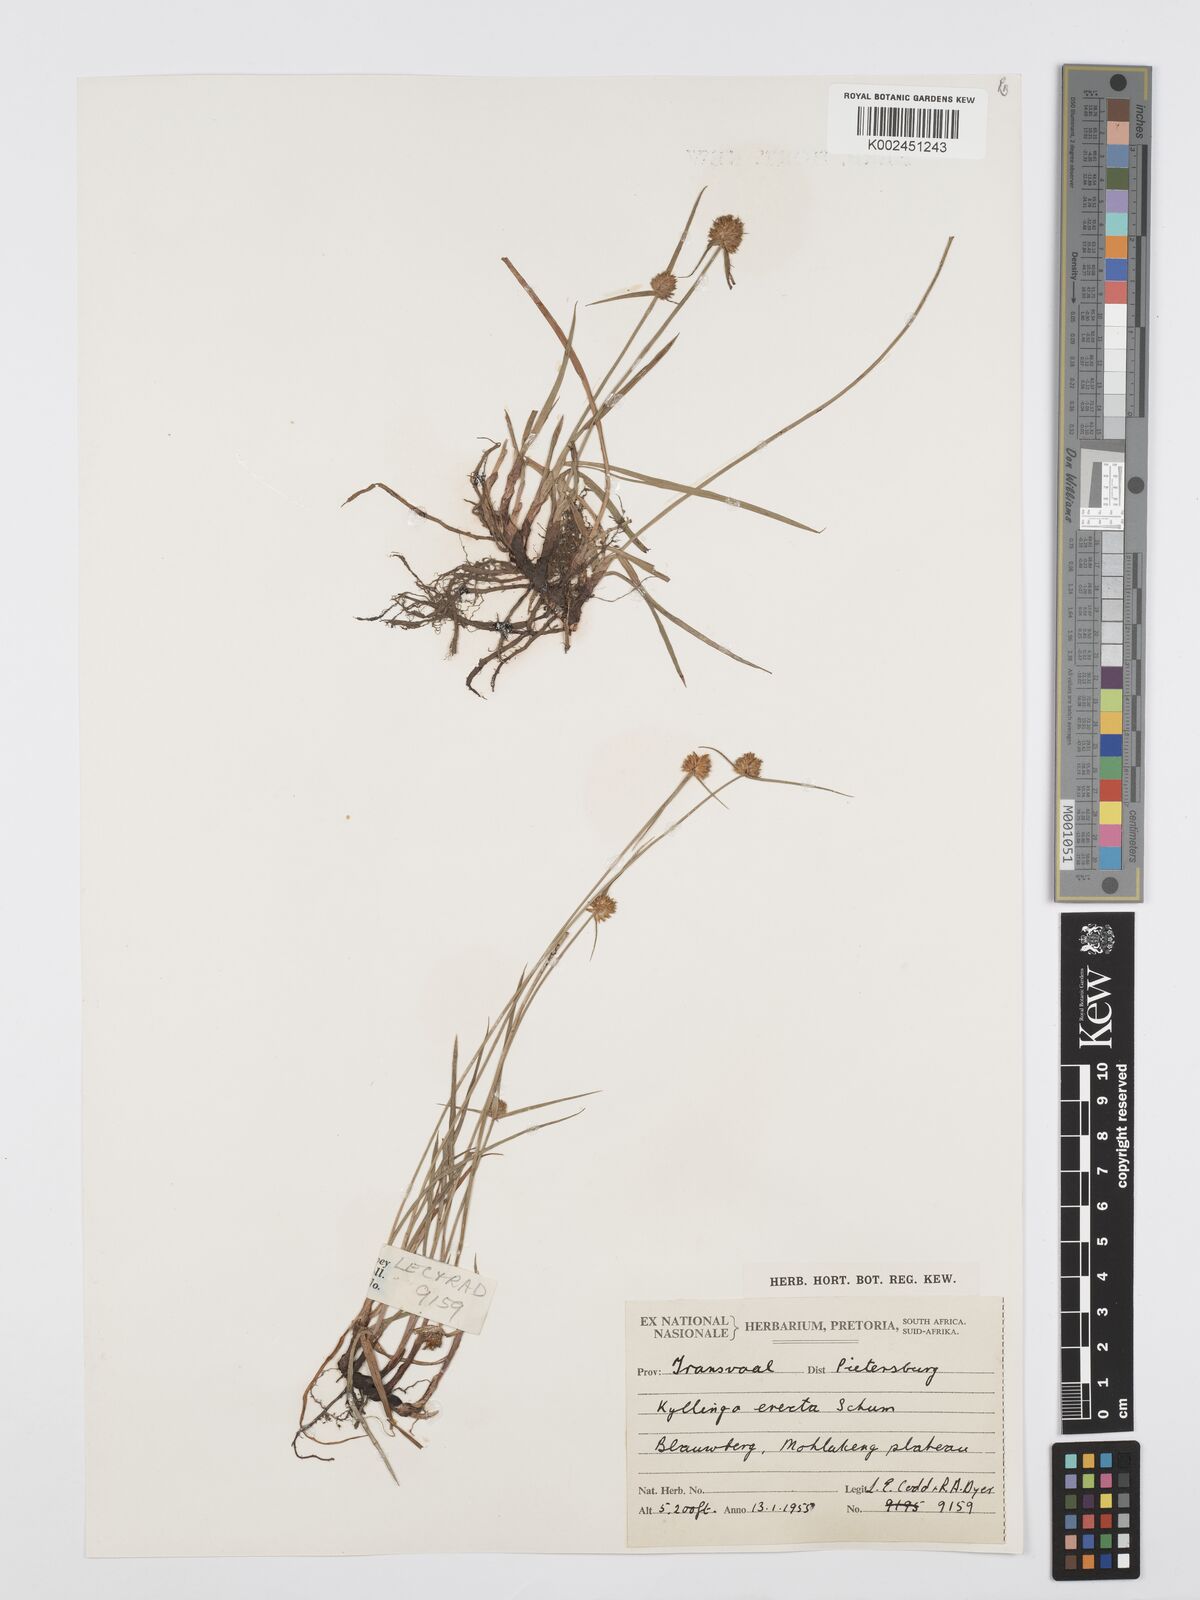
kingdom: Plantae
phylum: Tracheophyta
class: Liliopsida
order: Poales
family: Cyperaceae
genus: Cyperus
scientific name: Cyperus erectus
